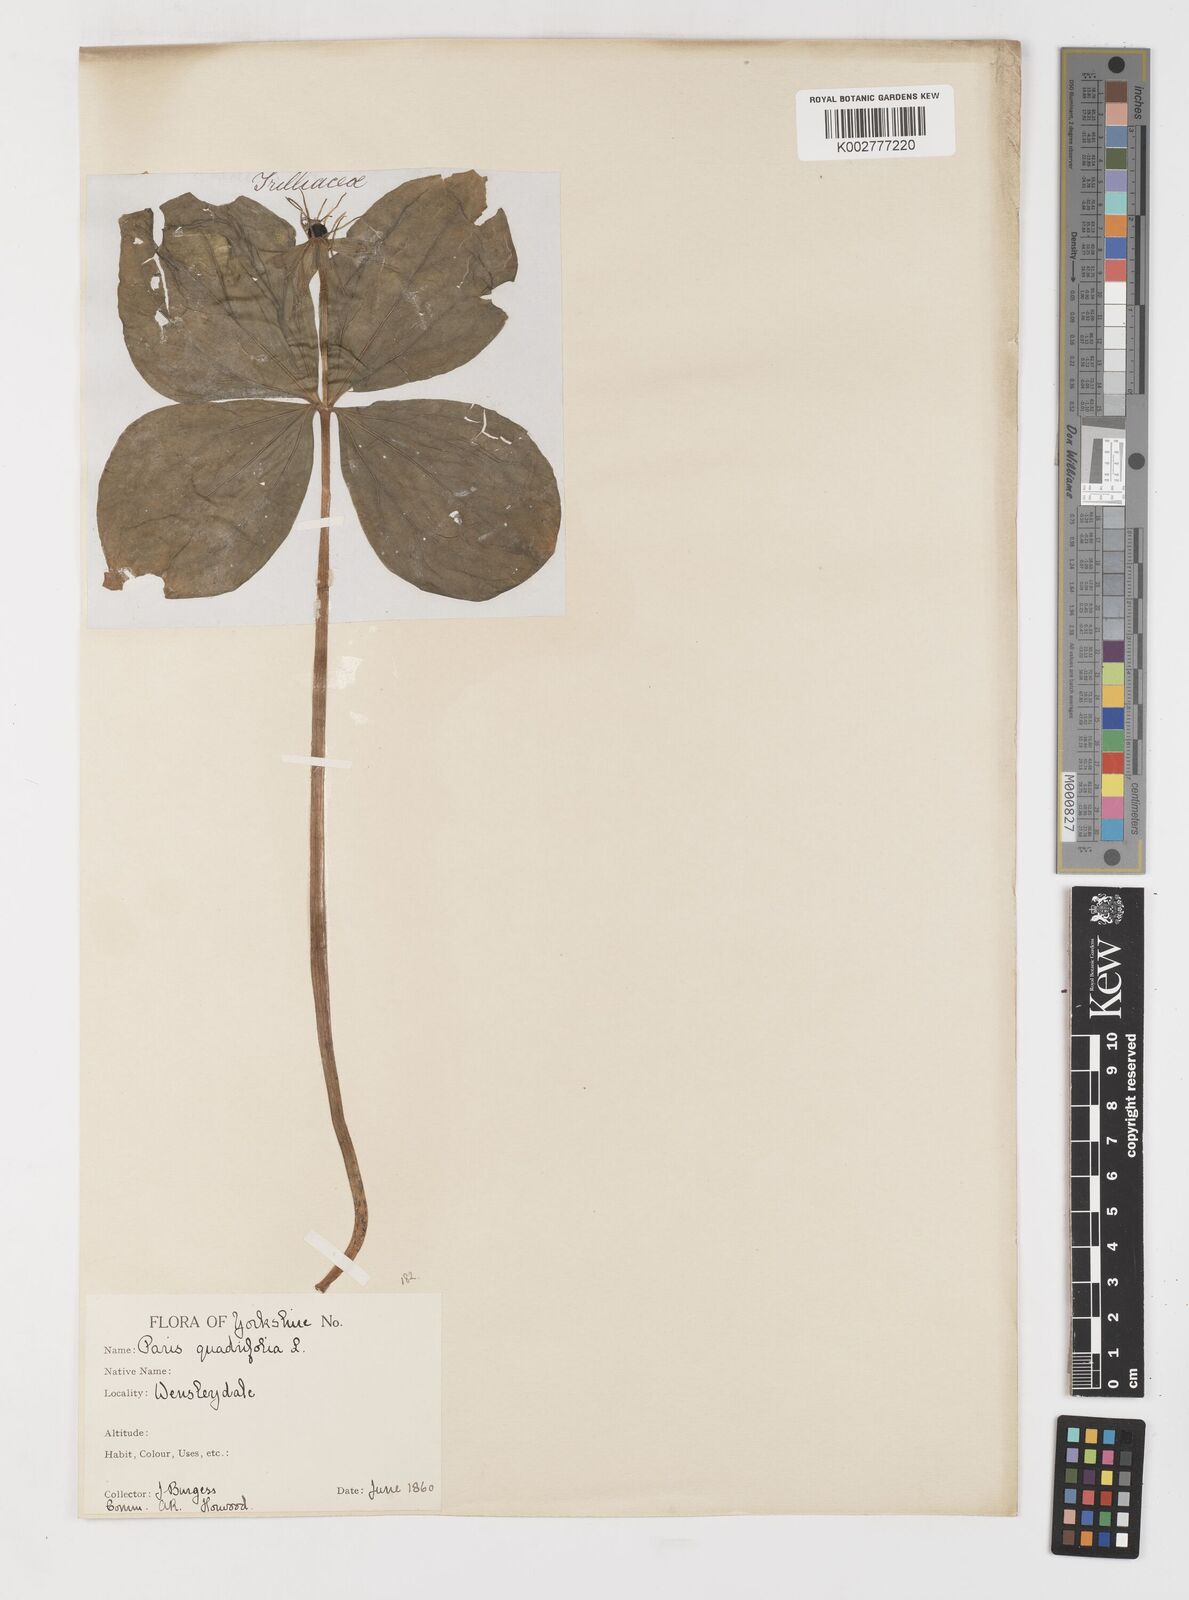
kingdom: Plantae
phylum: Tracheophyta
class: Liliopsida
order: Liliales
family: Melanthiaceae
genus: Paris
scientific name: Paris quadrifolia
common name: Herb-paris
